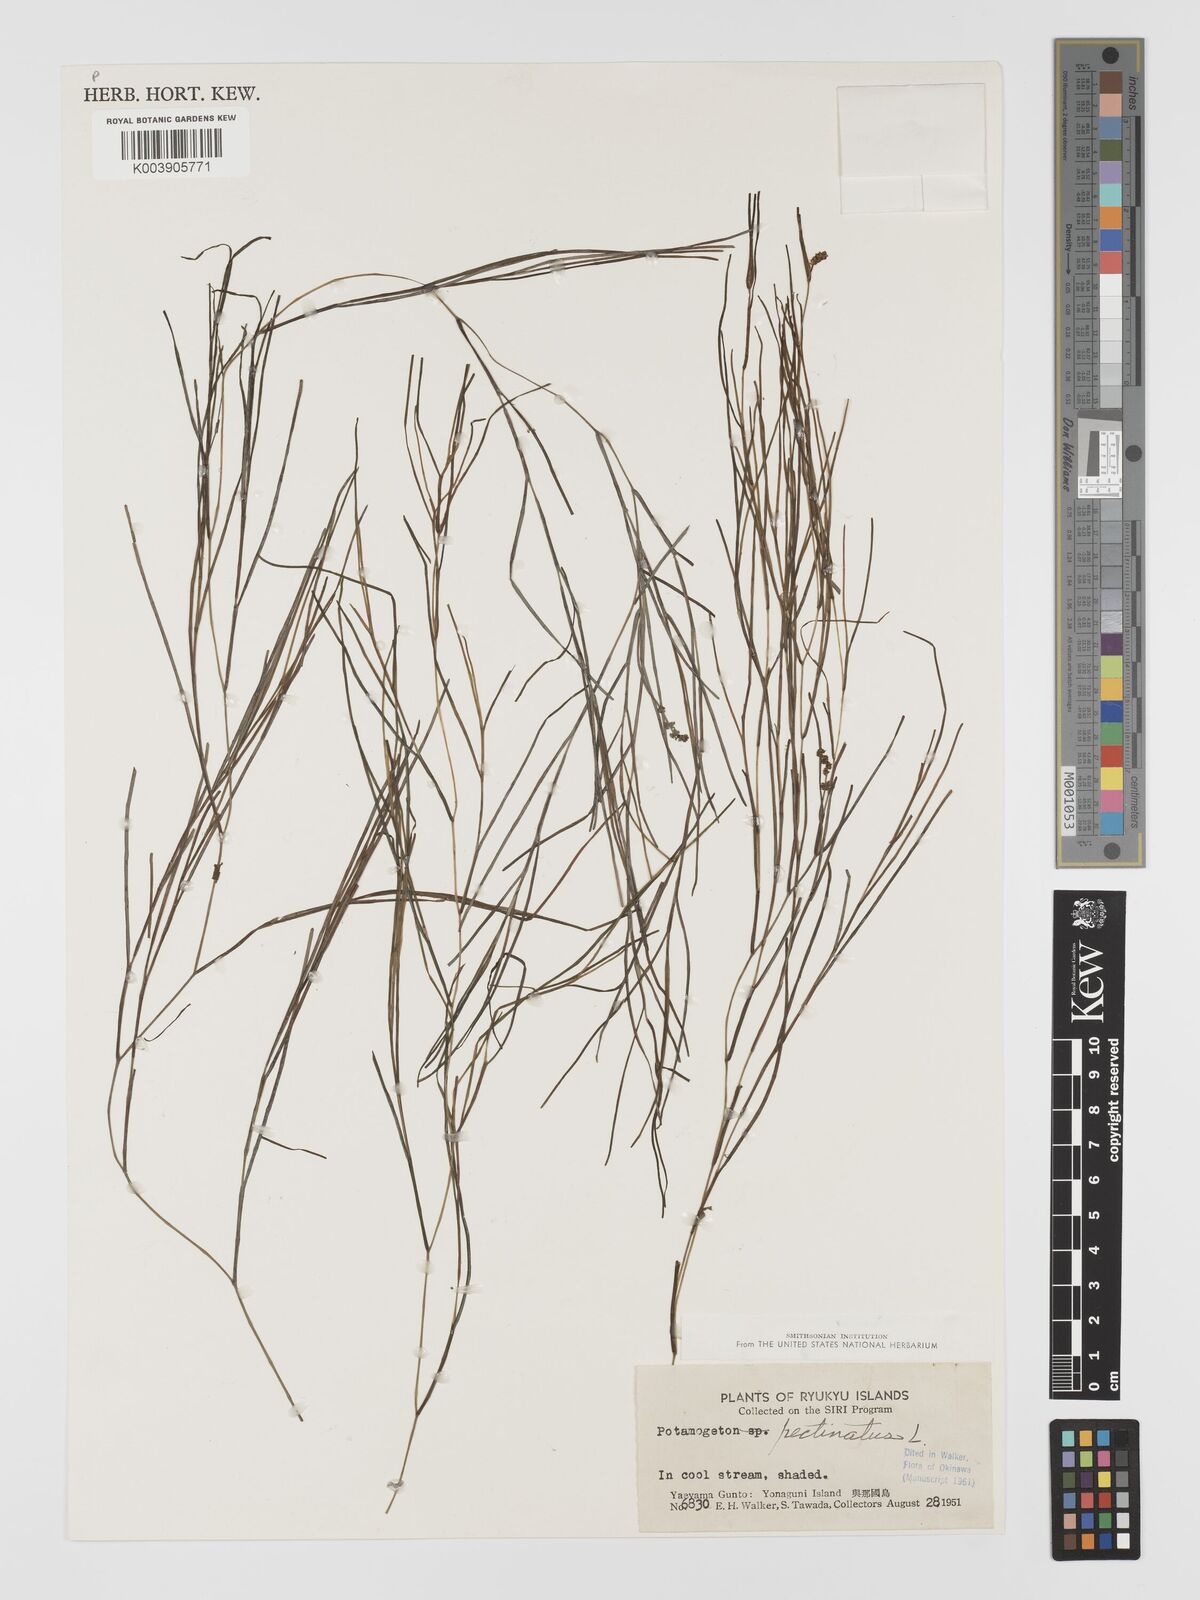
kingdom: Plantae
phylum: Tracheophyta
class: Liliopsida
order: Alismatales
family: Potamogetonaceae
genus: Stuckenia
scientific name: Stuckenia pectinata
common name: Sago pondweed
